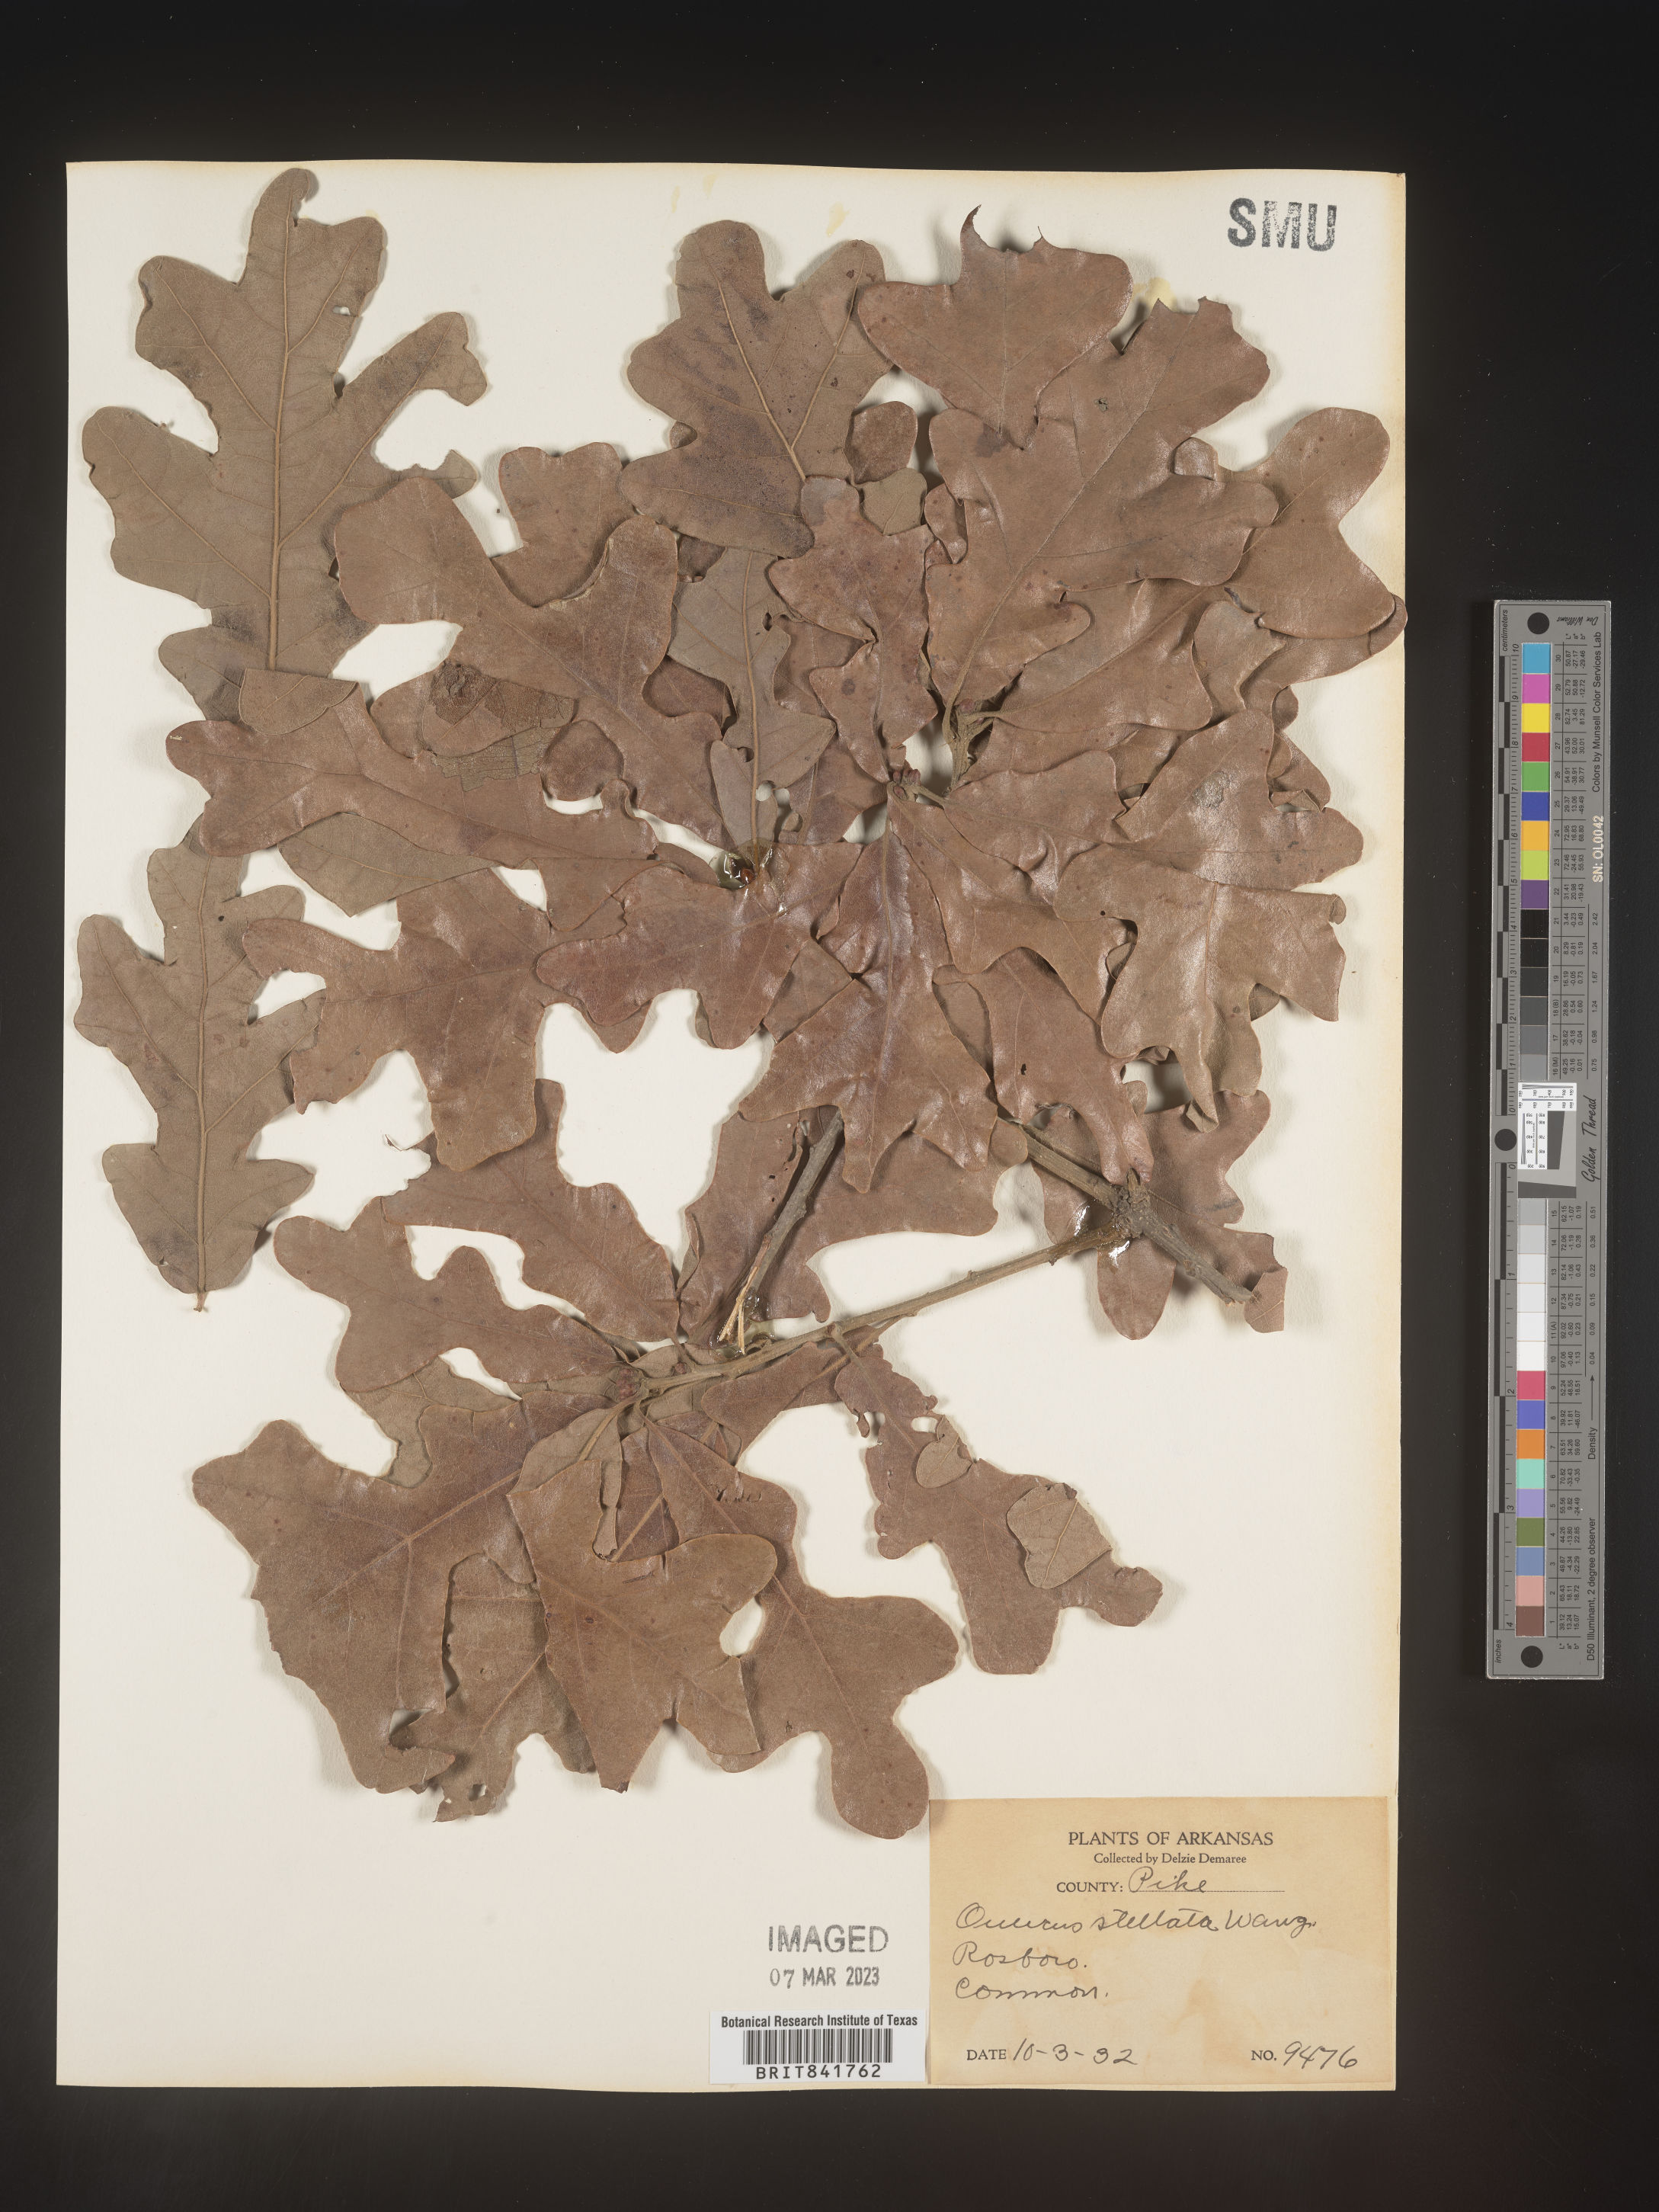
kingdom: Plantae
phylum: Tracheophyta
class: Magnoliopsida
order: Fagales
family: Fagaceae
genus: Quercus
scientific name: Quercus stellata
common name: Post oak
